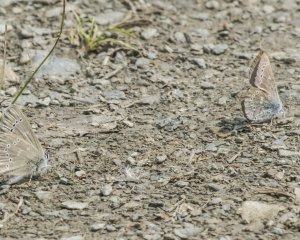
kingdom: Animalia
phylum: Arthropoda
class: Insecta
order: Lepidoptera
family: Lycaenidae
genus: Glaucopsyche
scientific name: Glaucopsyche lygdamus
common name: Silvery Blue
